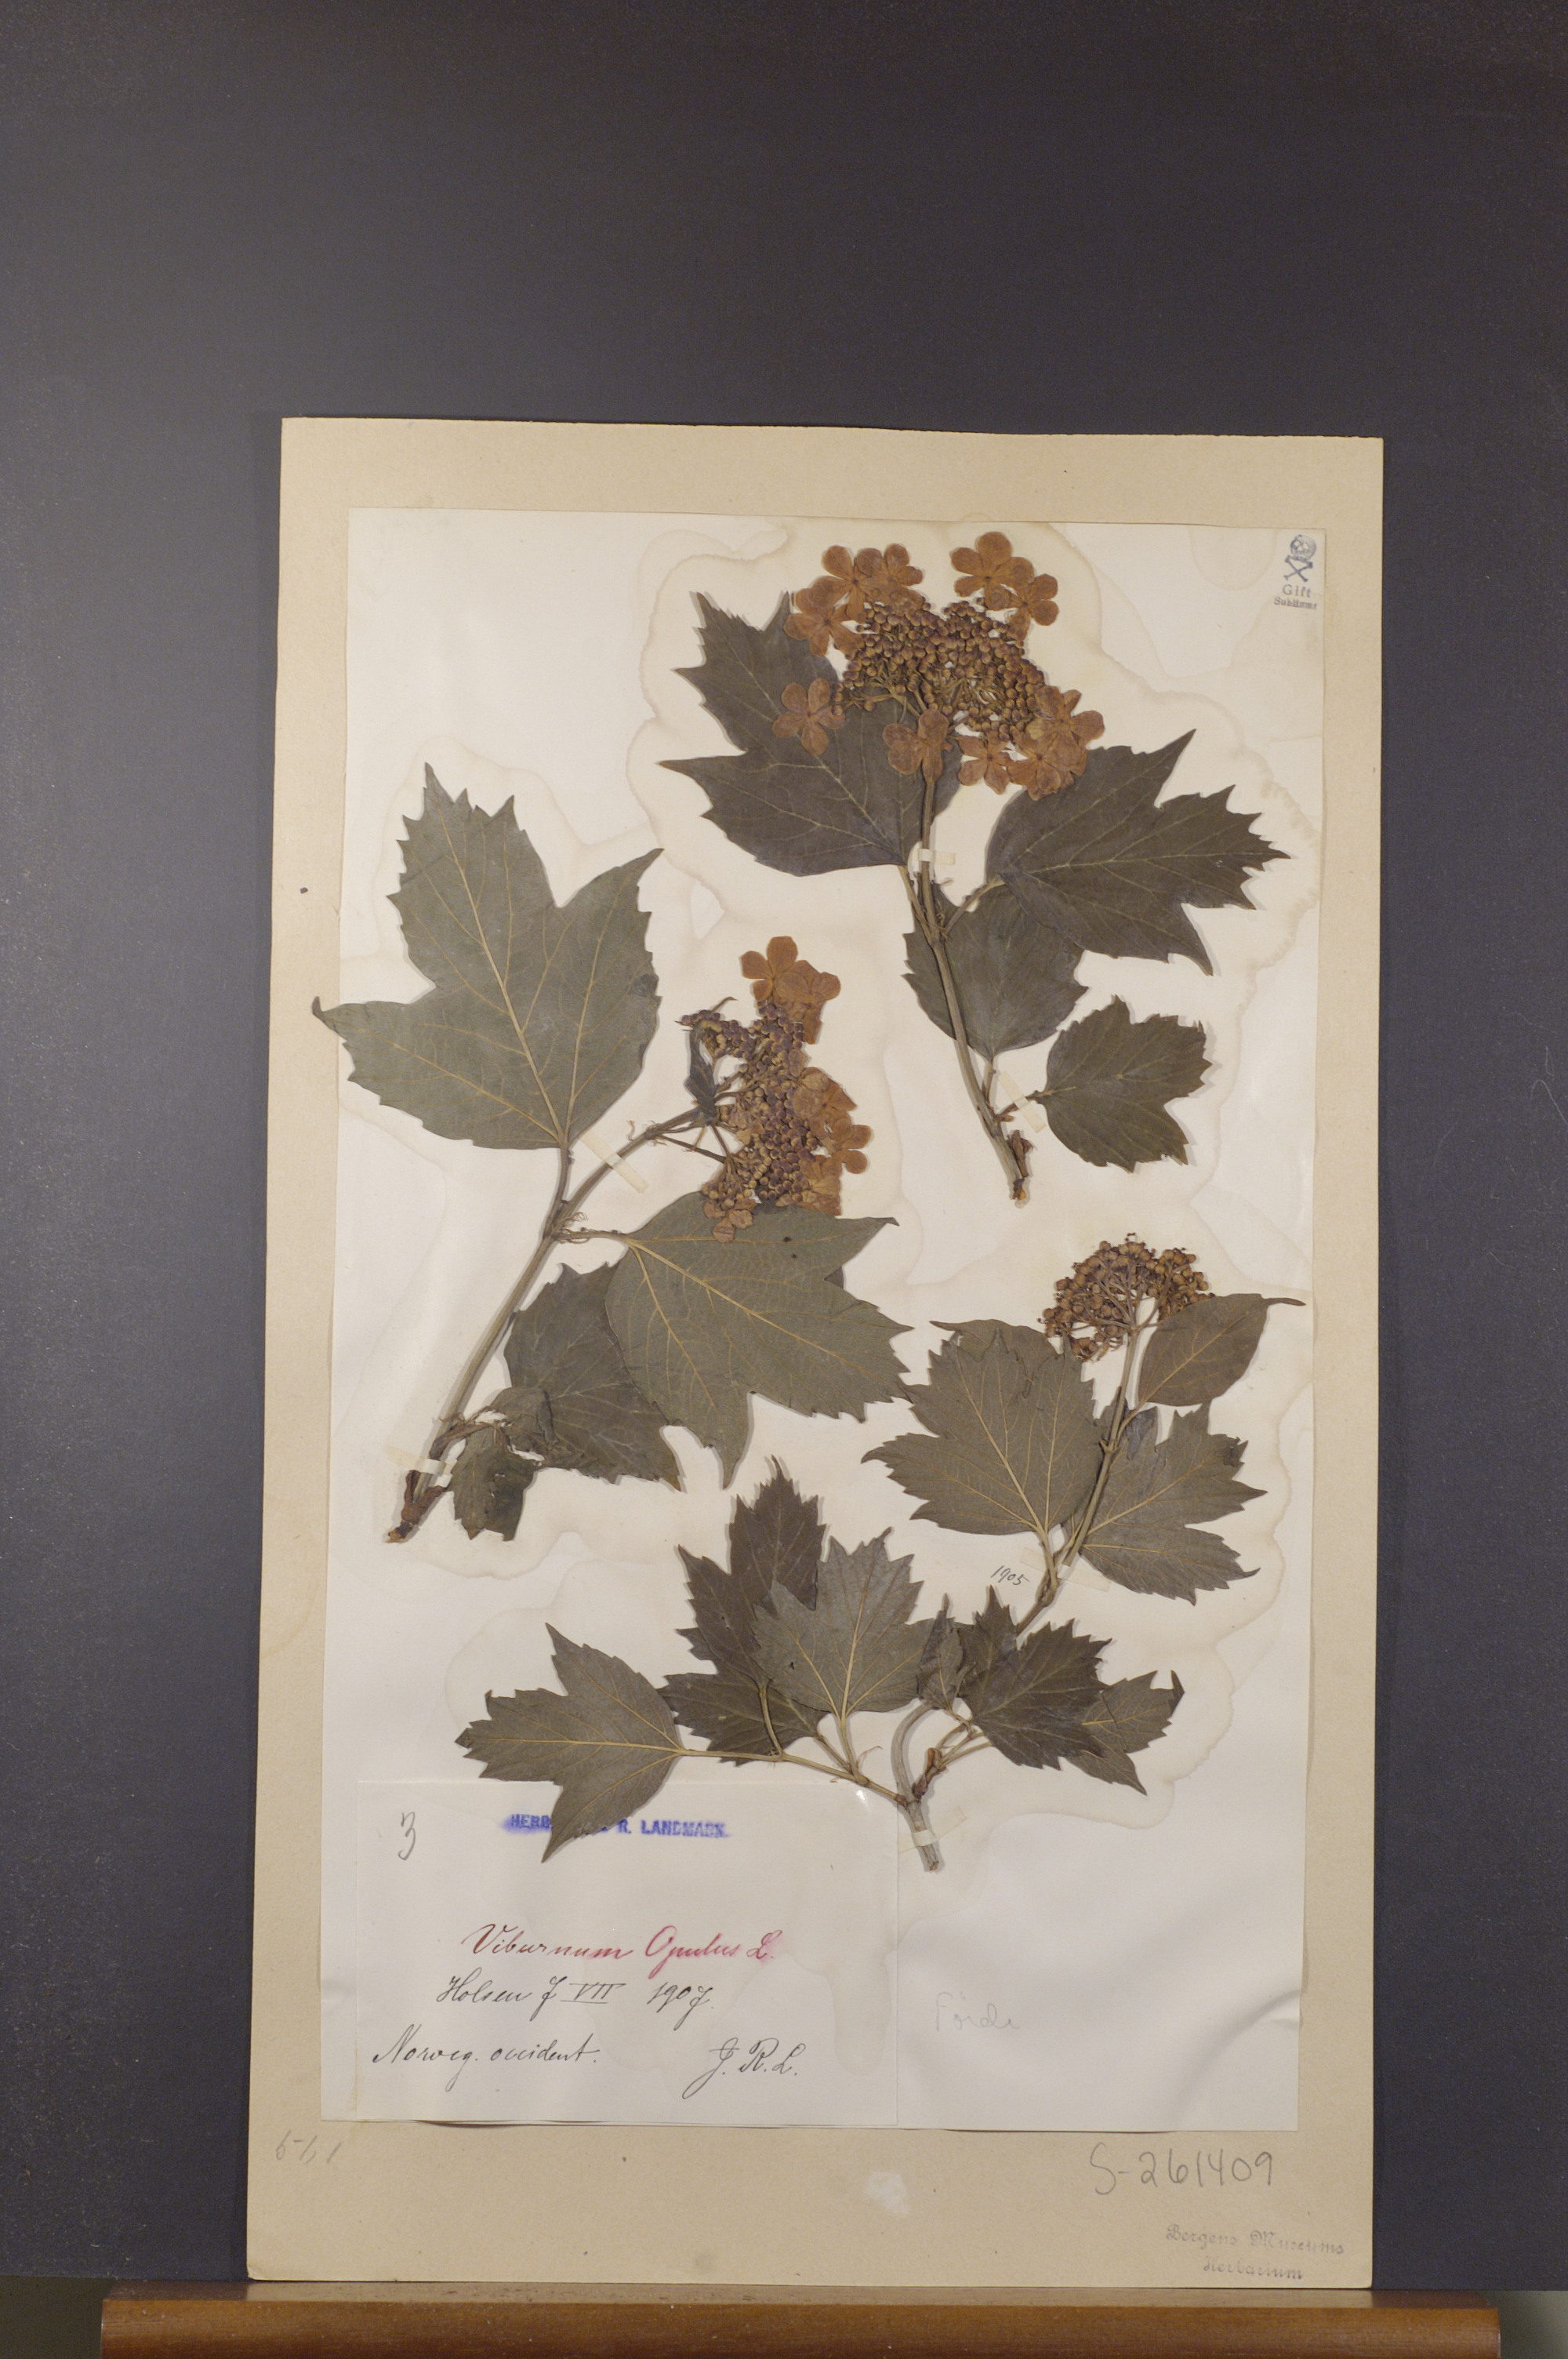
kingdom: Plantae
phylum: Tracheophyta
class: Magnoliopsida
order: Dipsacales
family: Viburnaceae
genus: Viburnum
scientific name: Viburnum opulus
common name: Guelder-rose
